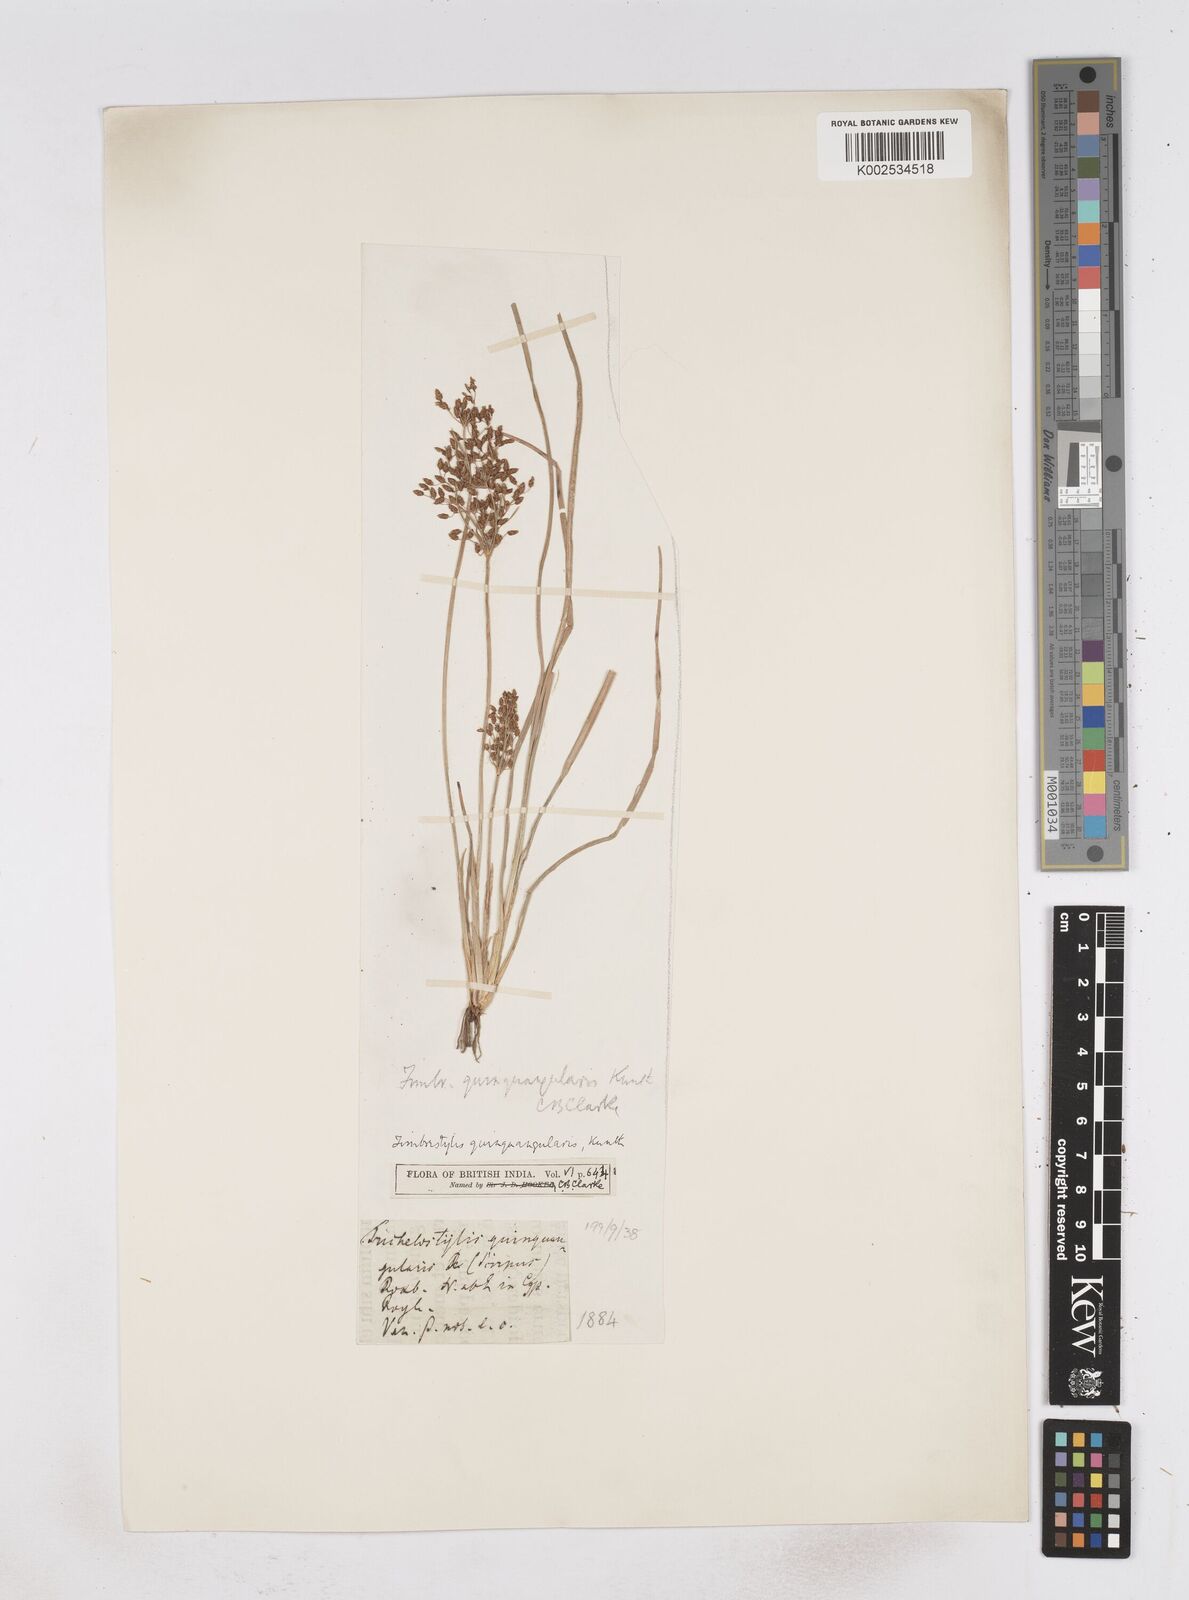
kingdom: Plantae
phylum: Tracheophyta
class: Liliopsida
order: Poales
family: Cyperaceae
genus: Fimbristylis
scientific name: Fimbristylis quinquangularis
